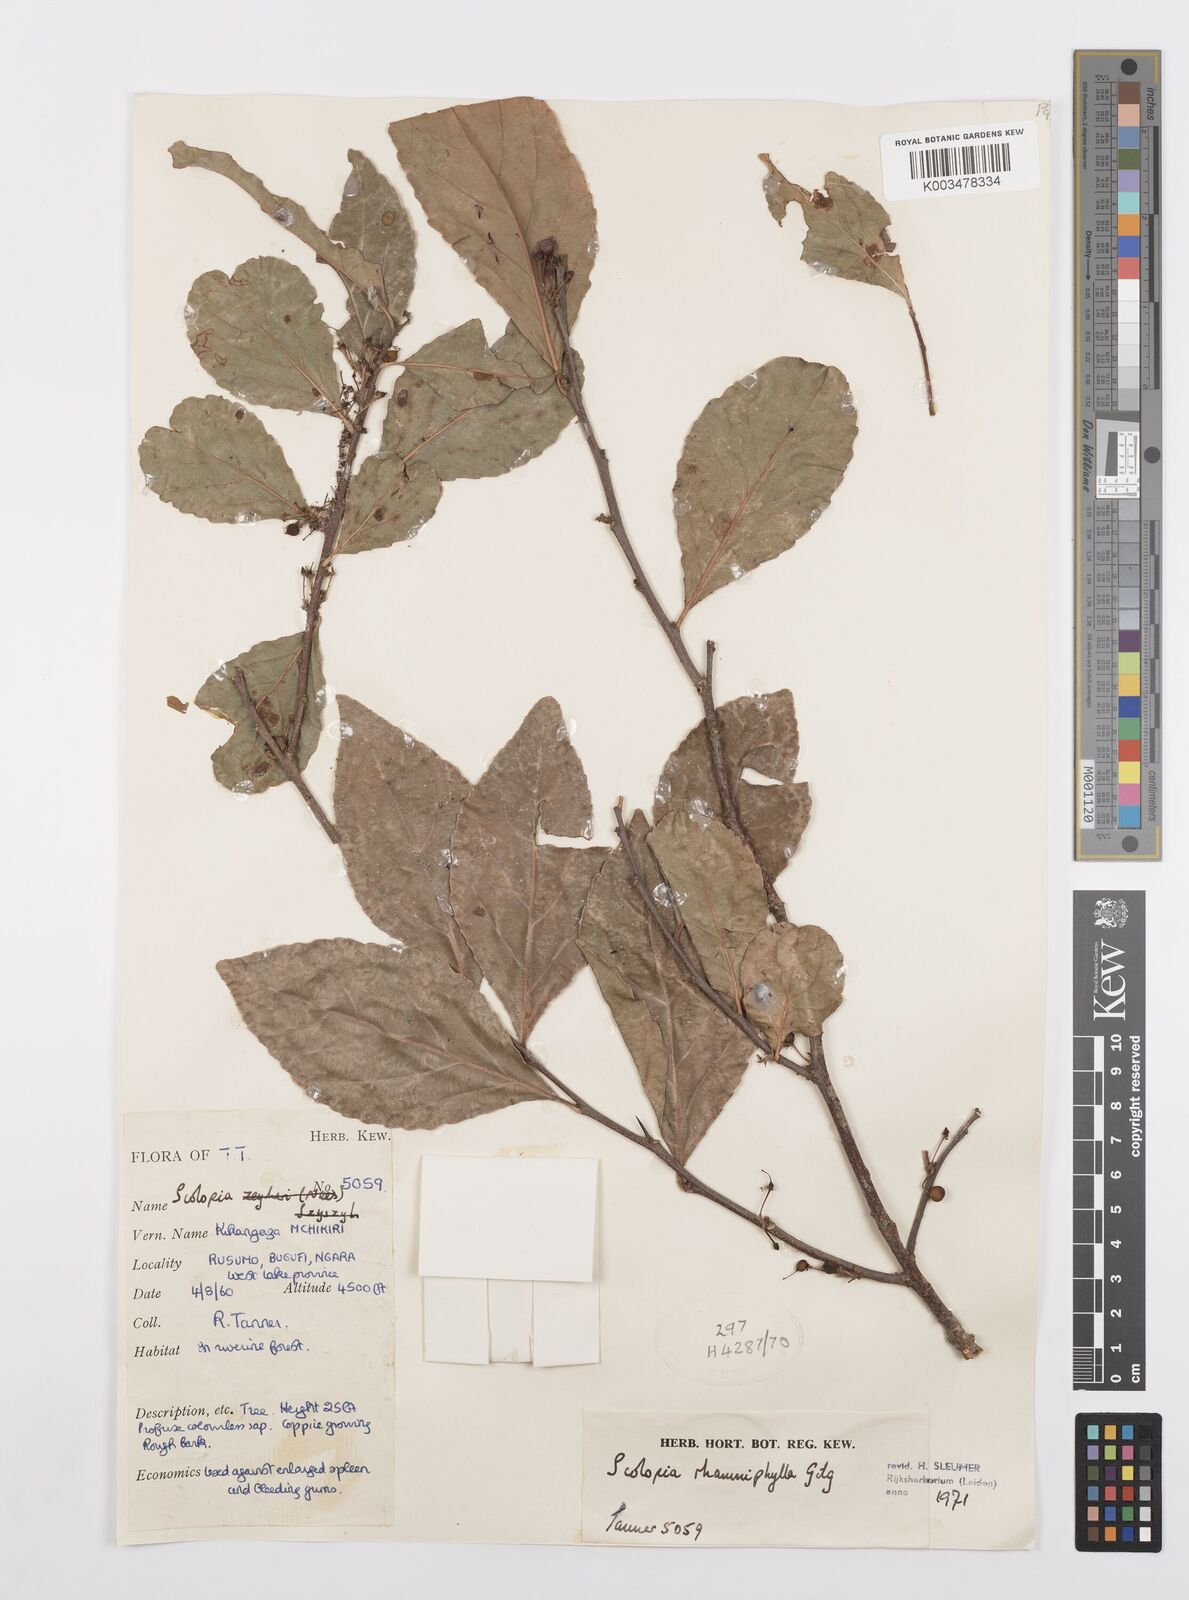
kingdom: Plantae
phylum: Tracheophyta
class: Magnoliopsida
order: Malpighiales
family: Salicaceae
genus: Scolopia
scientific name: Scolopia rhamniphylla
